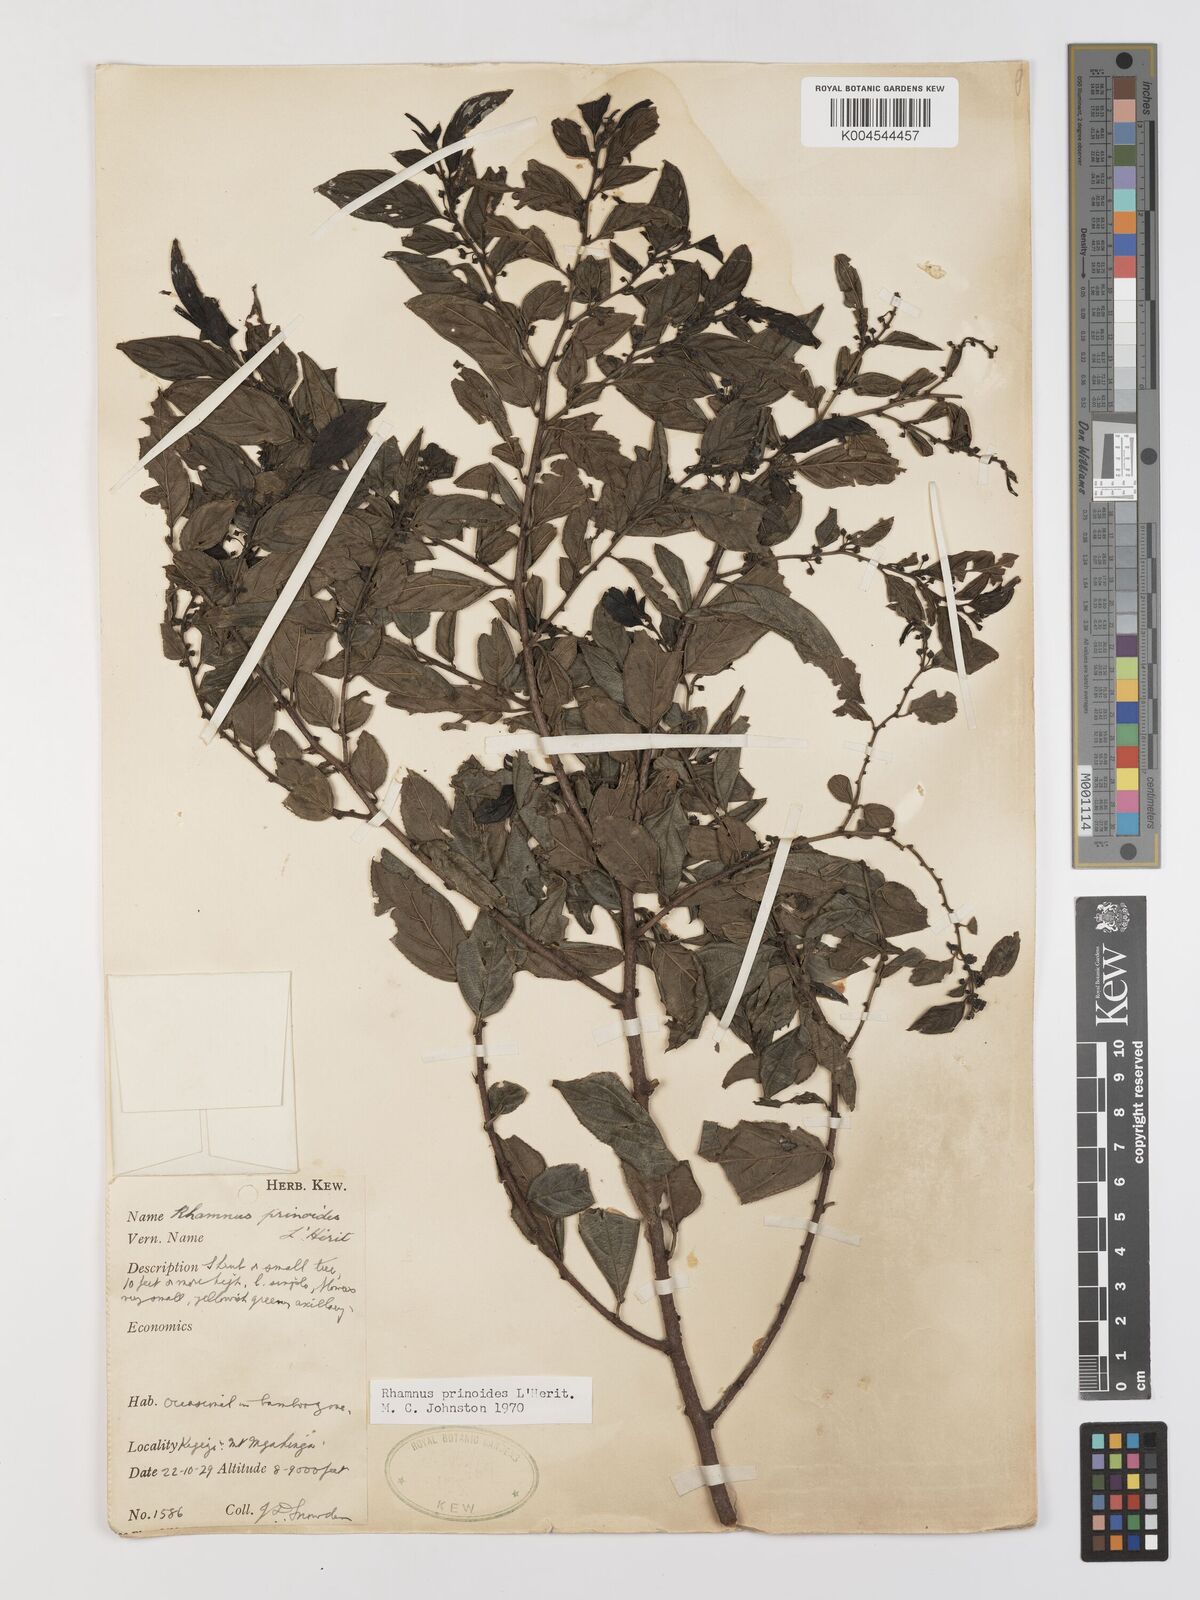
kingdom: Plantae
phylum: Tracheophyta
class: Magnoliopsida
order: Rosales
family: Rhamnaceae
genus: Rhamnus
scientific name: Rhamnus prinoides
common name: Dogwood
